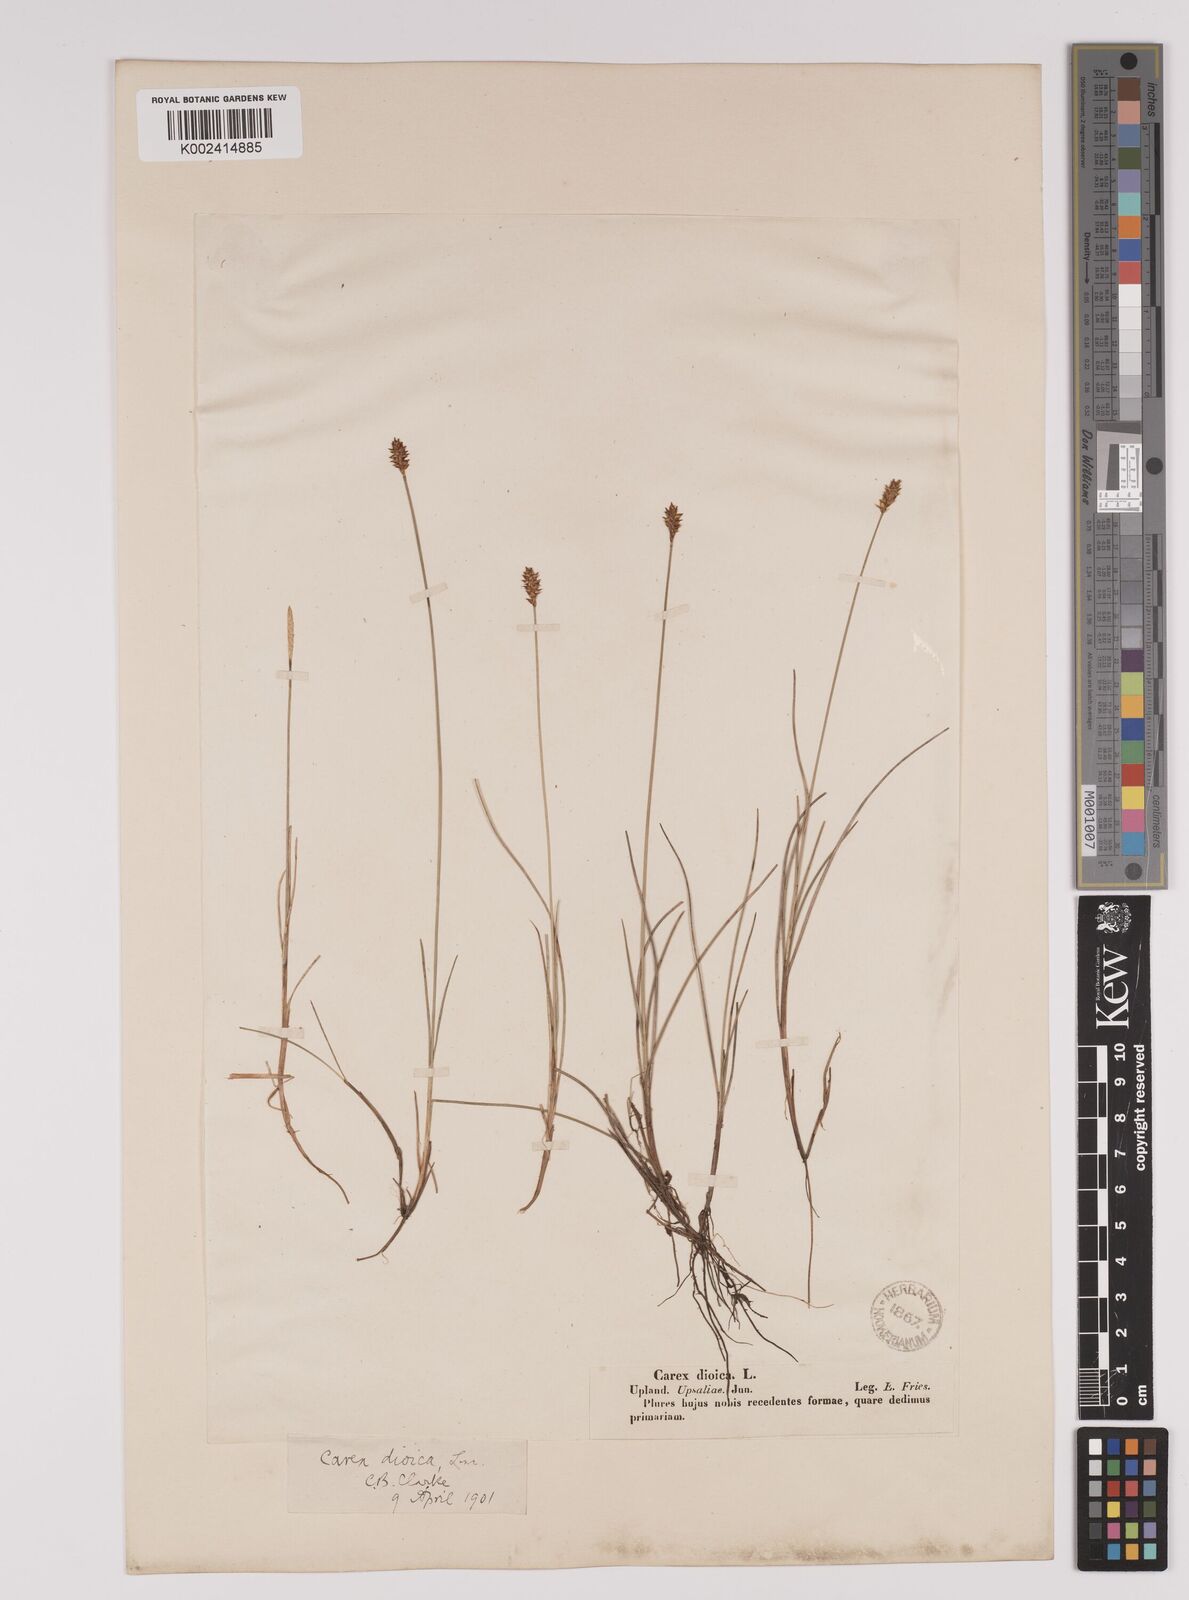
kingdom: Plantae
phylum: Tracheophyta
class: Liliopsida
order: Poales
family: Cyperaceae
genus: Carex
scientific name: Carex dioica
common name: Dioecious sedge
